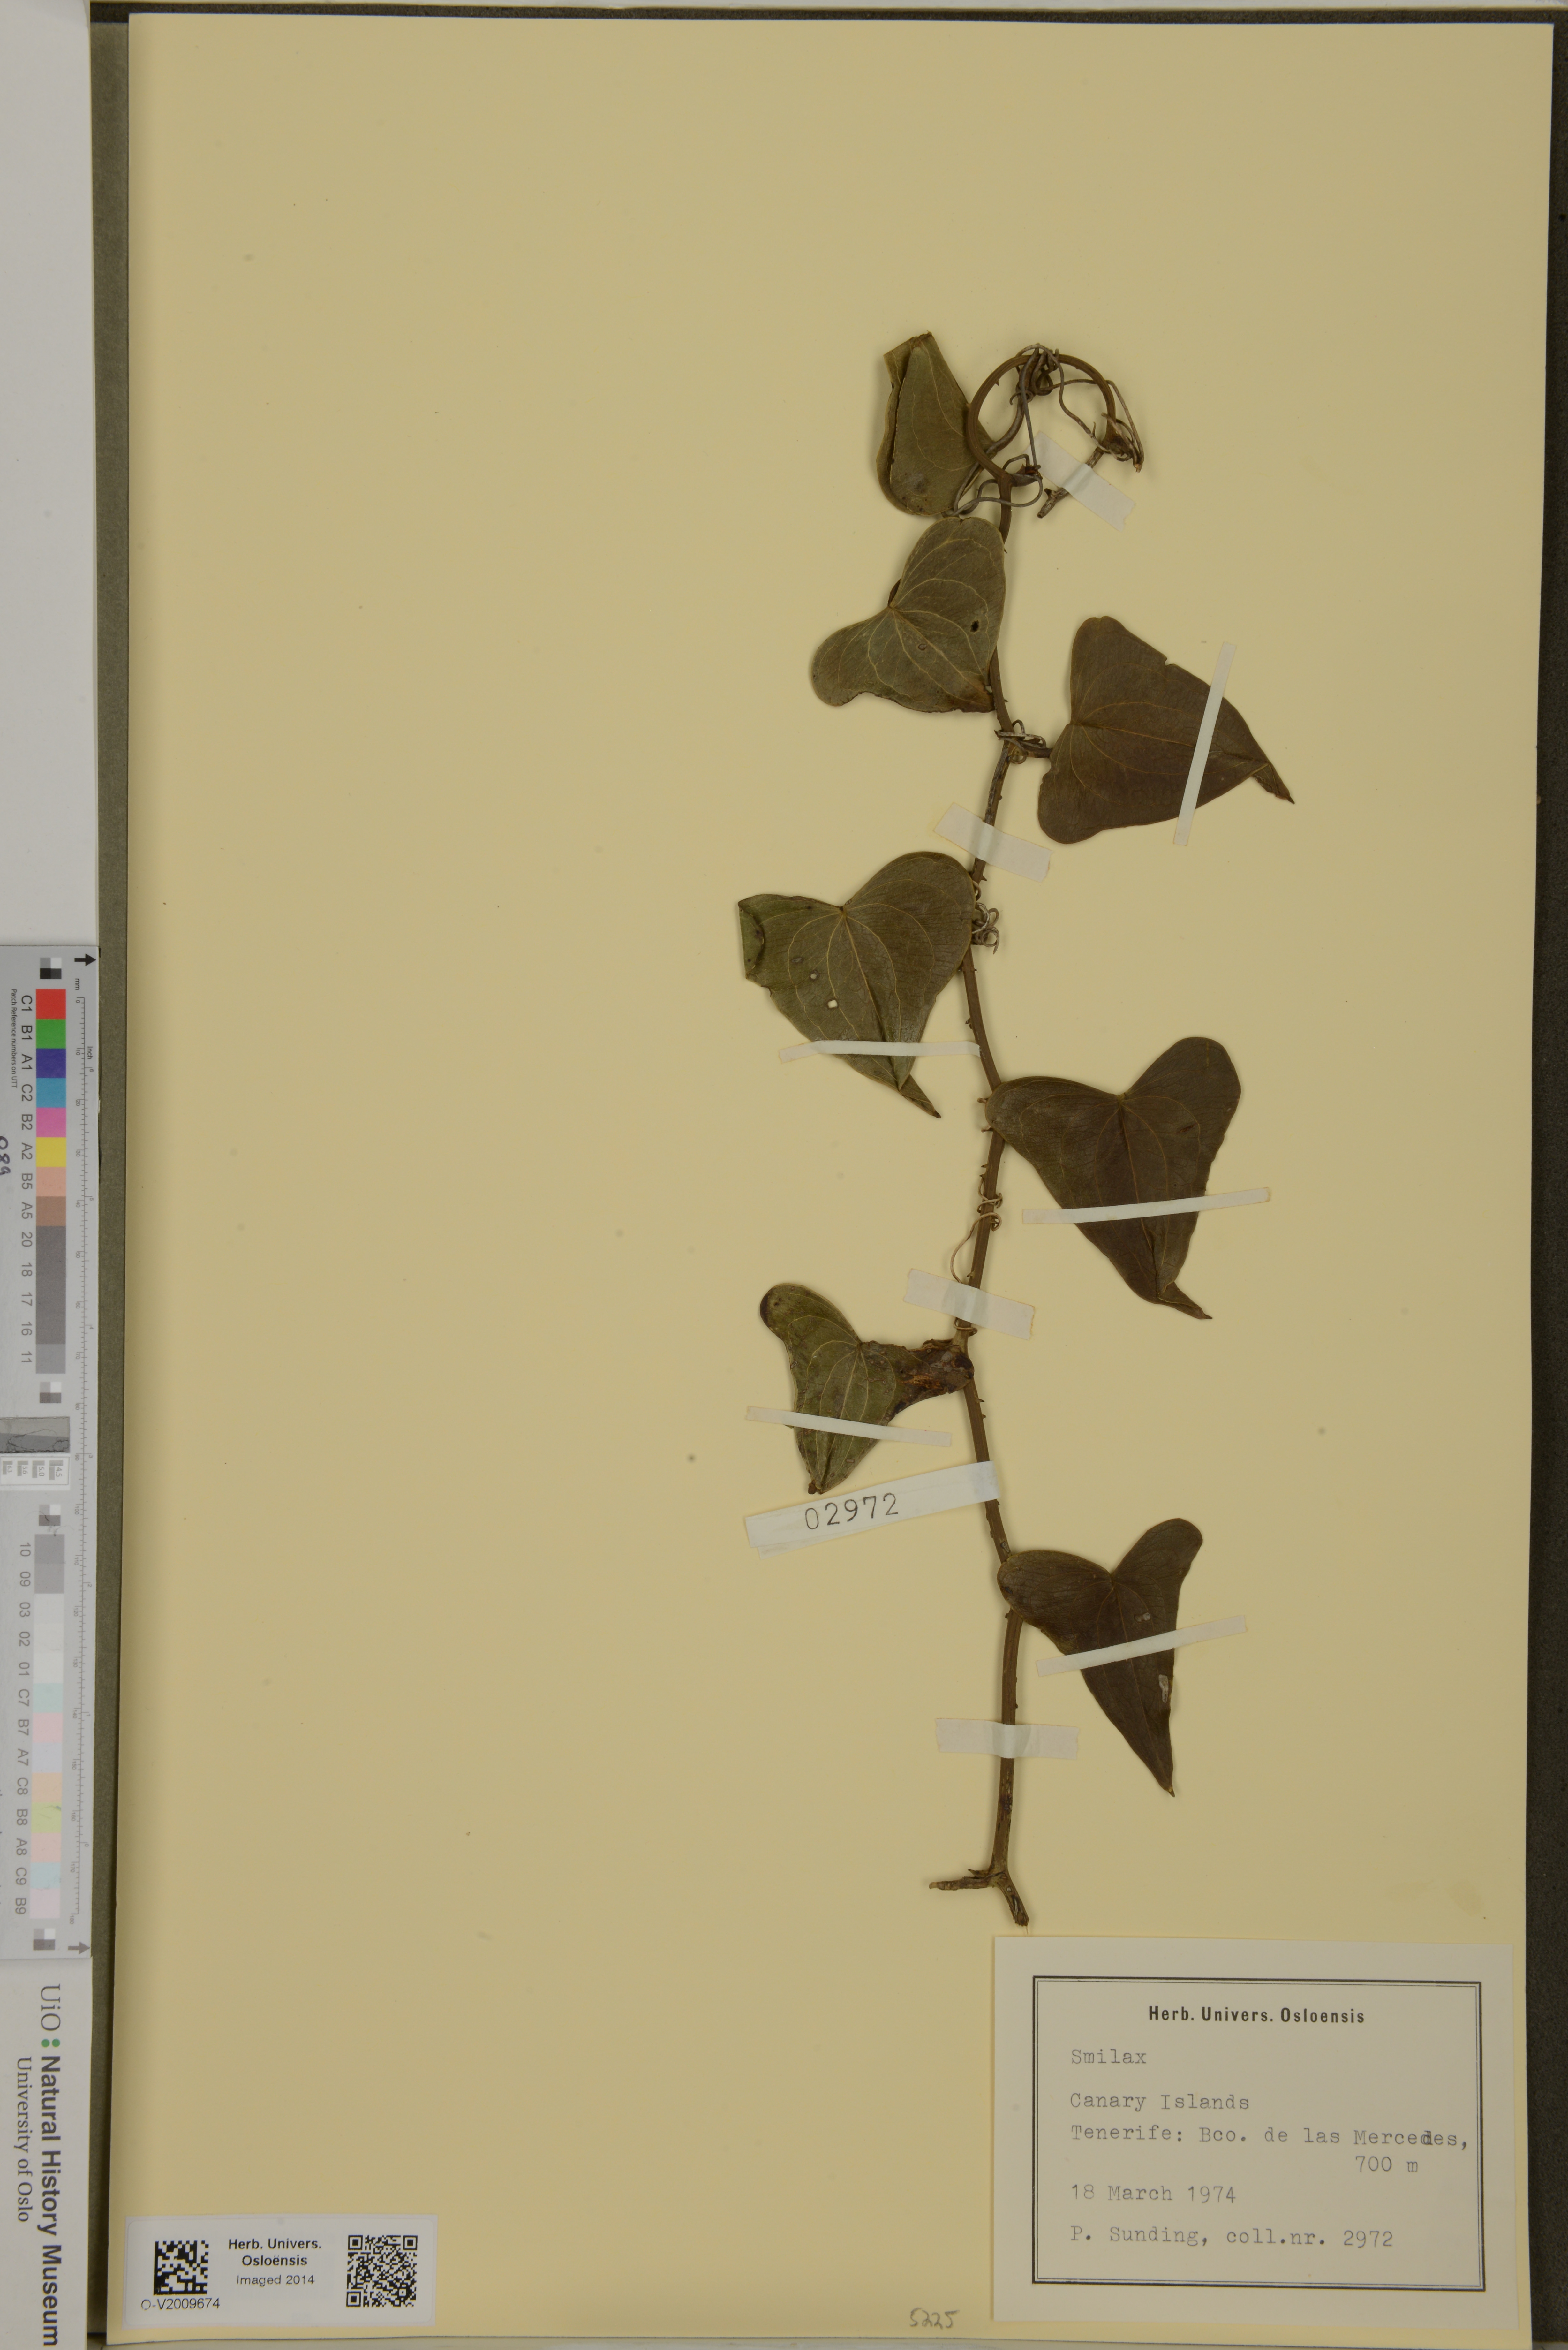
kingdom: Plantae
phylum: Tracheophyta
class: Liliopsida
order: Liliales
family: Smilacaceae
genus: Smilax
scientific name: Smilax
